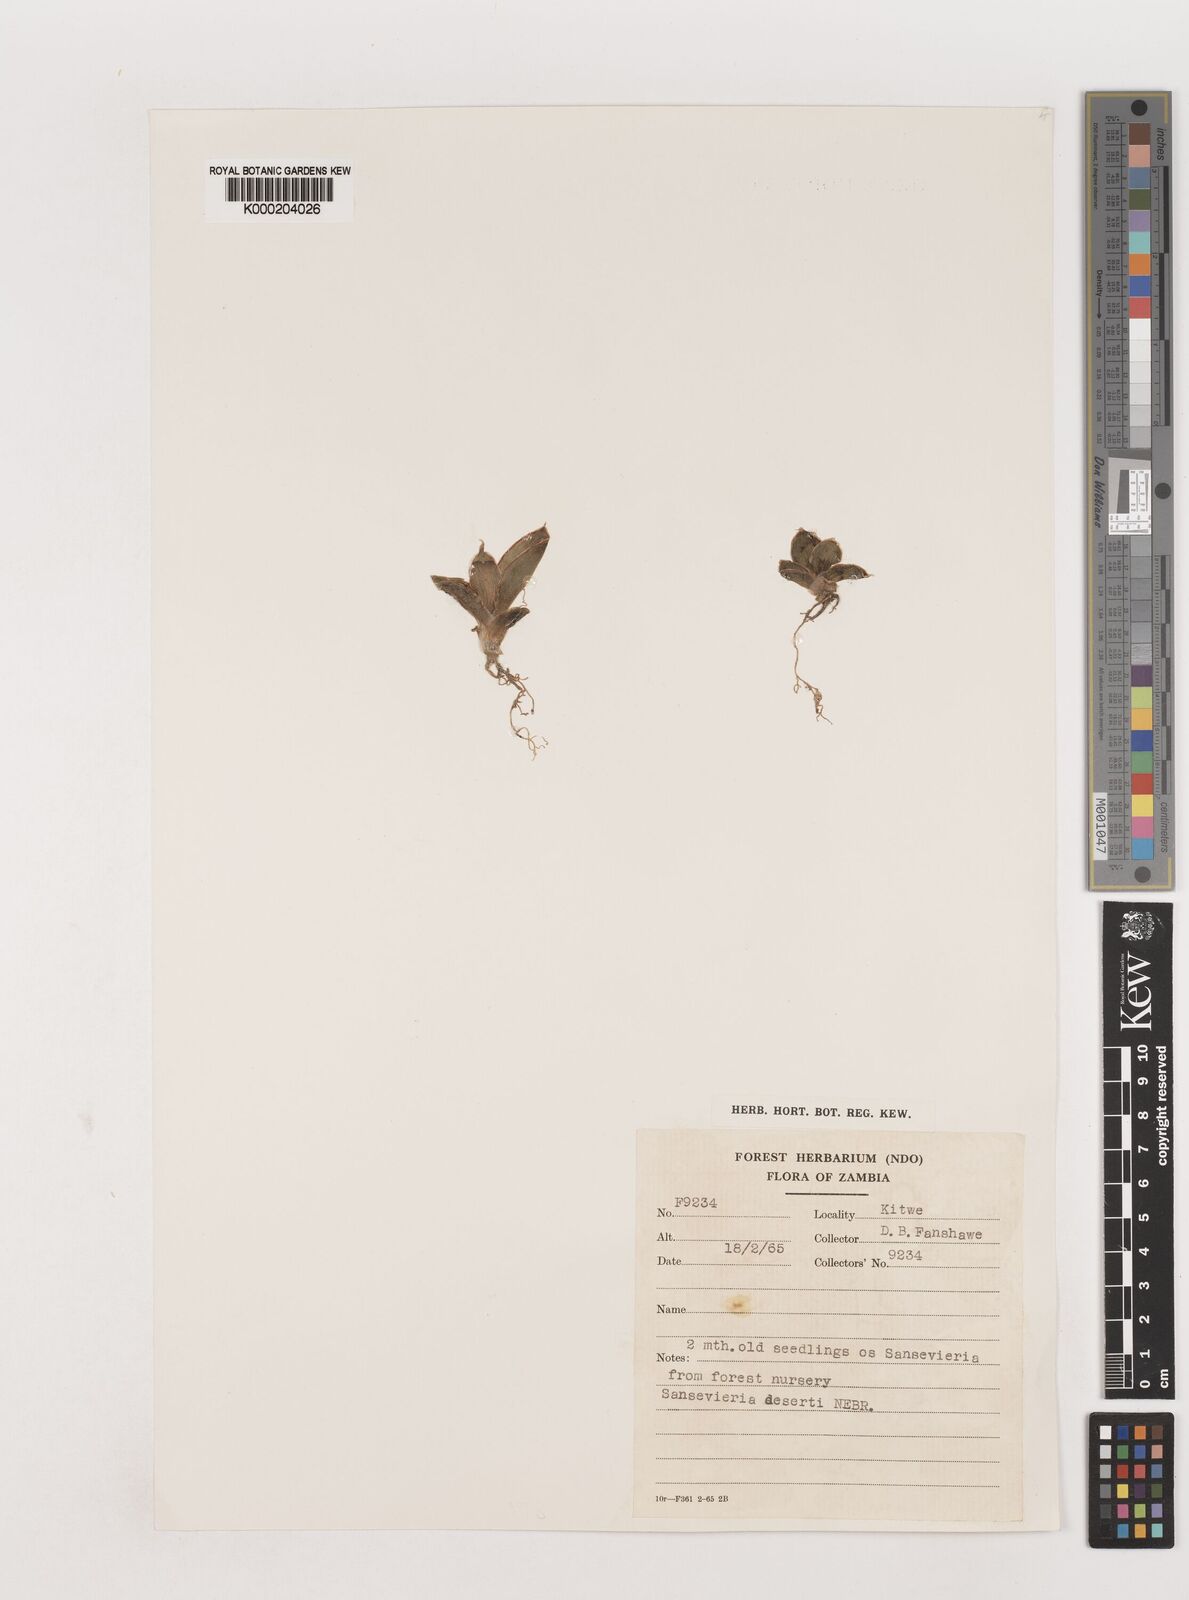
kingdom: Plantae
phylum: Tracheophyta
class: Liliopsida
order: Asparagales
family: Asparagaceae
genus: Dracaena
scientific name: Dracaena pearsonii
